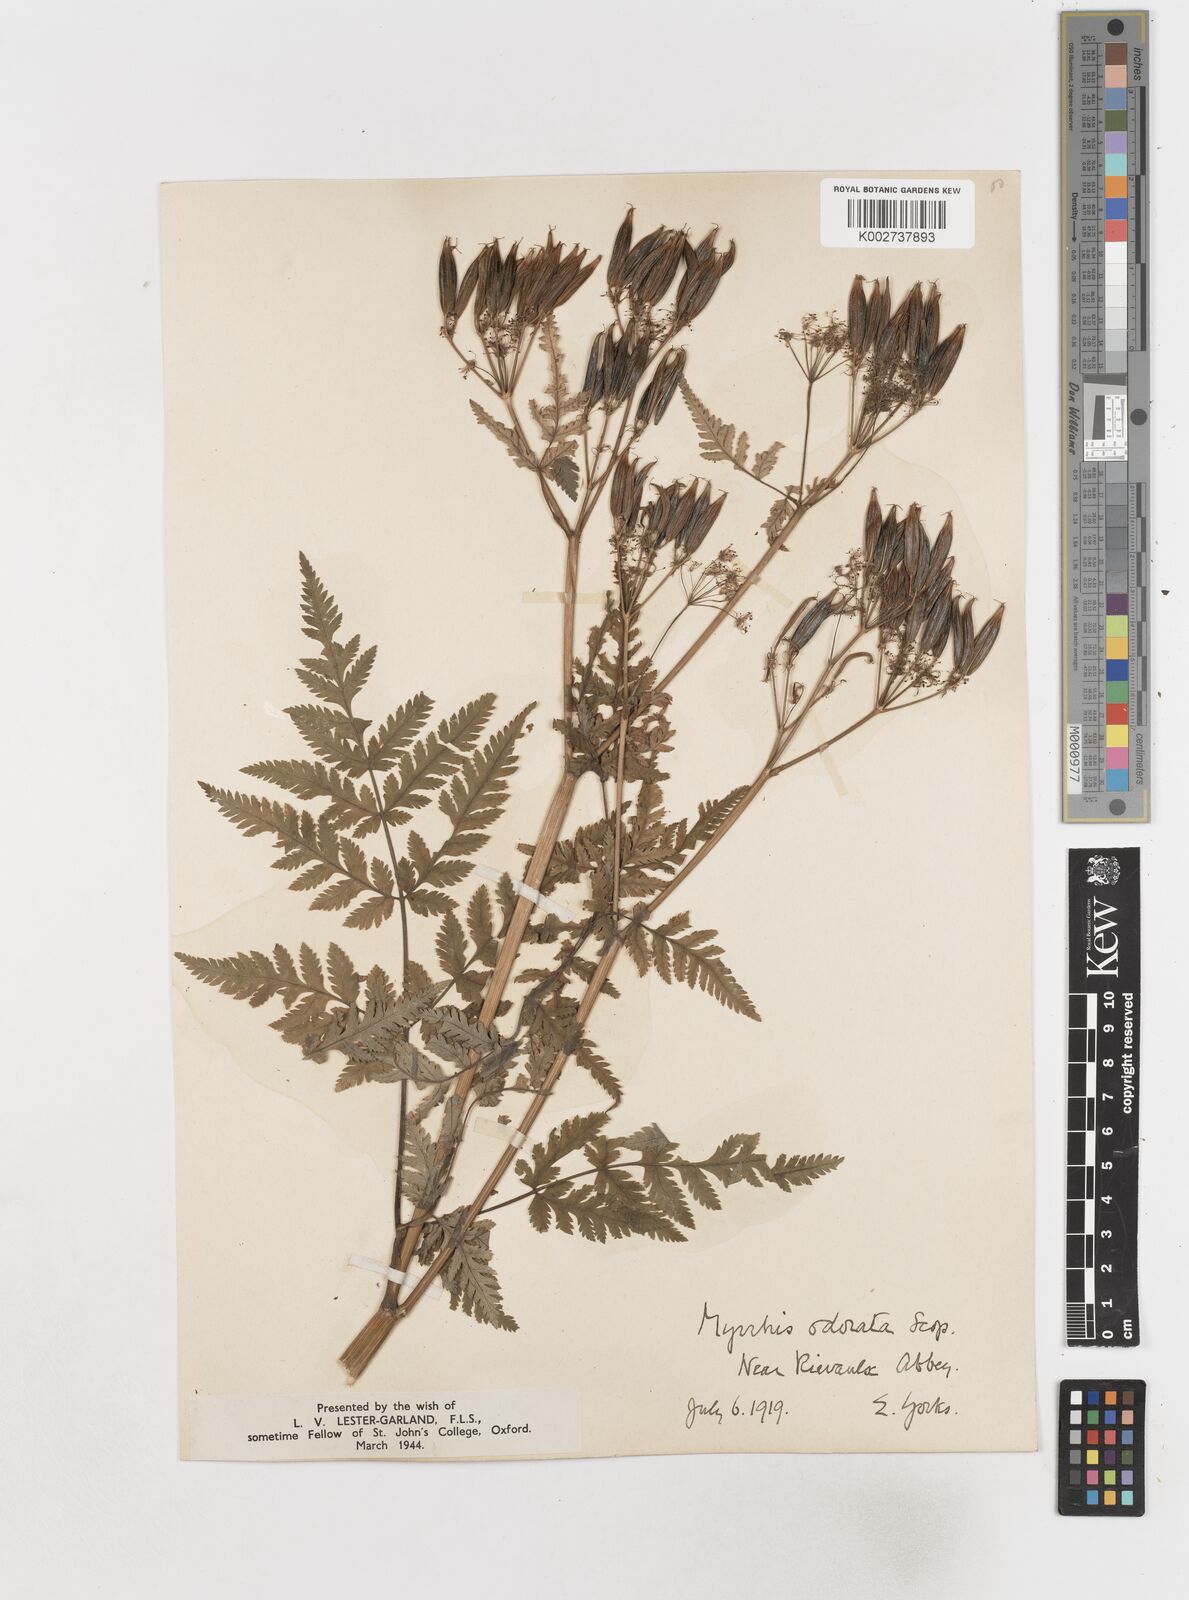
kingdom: Plantae
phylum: Tracheophyta
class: Magnoliopsida
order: Apiales
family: Apiaceae
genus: Myrrhis
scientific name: Myrrhis odorata
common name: Sweet cicely
